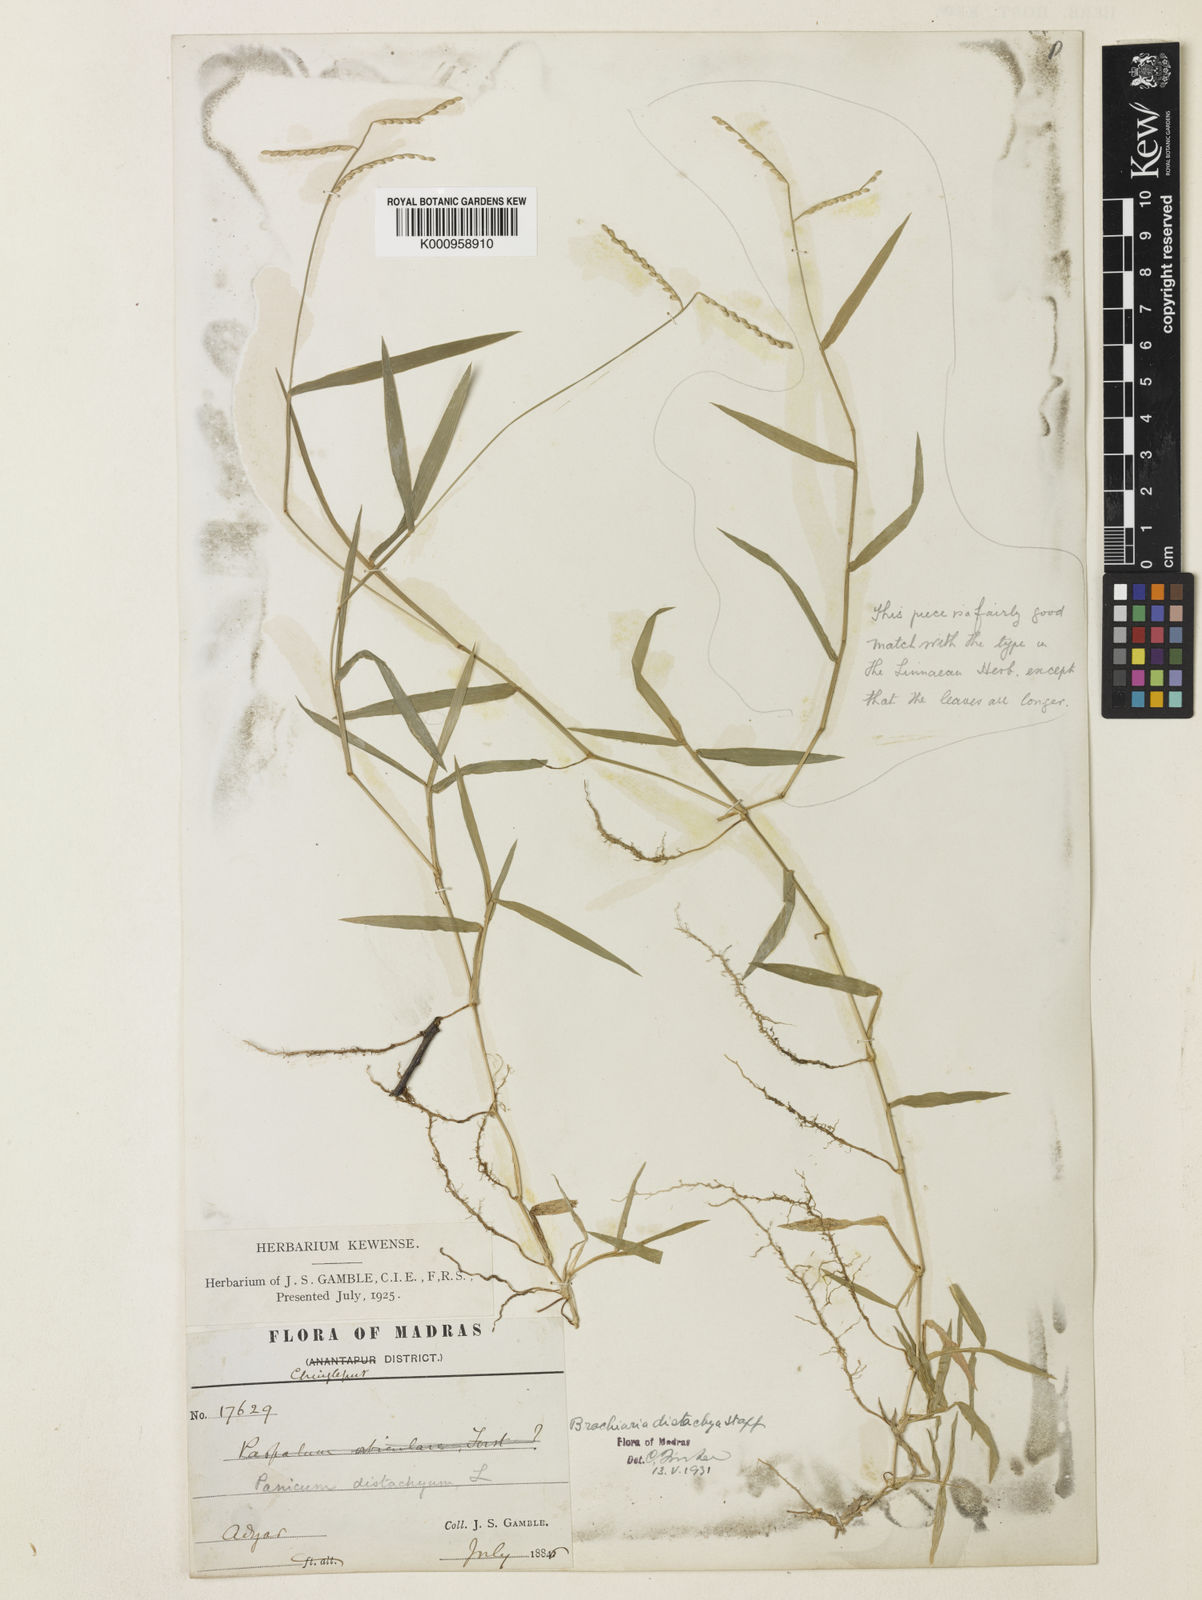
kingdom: Plantae
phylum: Tracheophyta
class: Liliopsida
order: Poales
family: Poaceae
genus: Urochloa
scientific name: Urochloa distachyos
